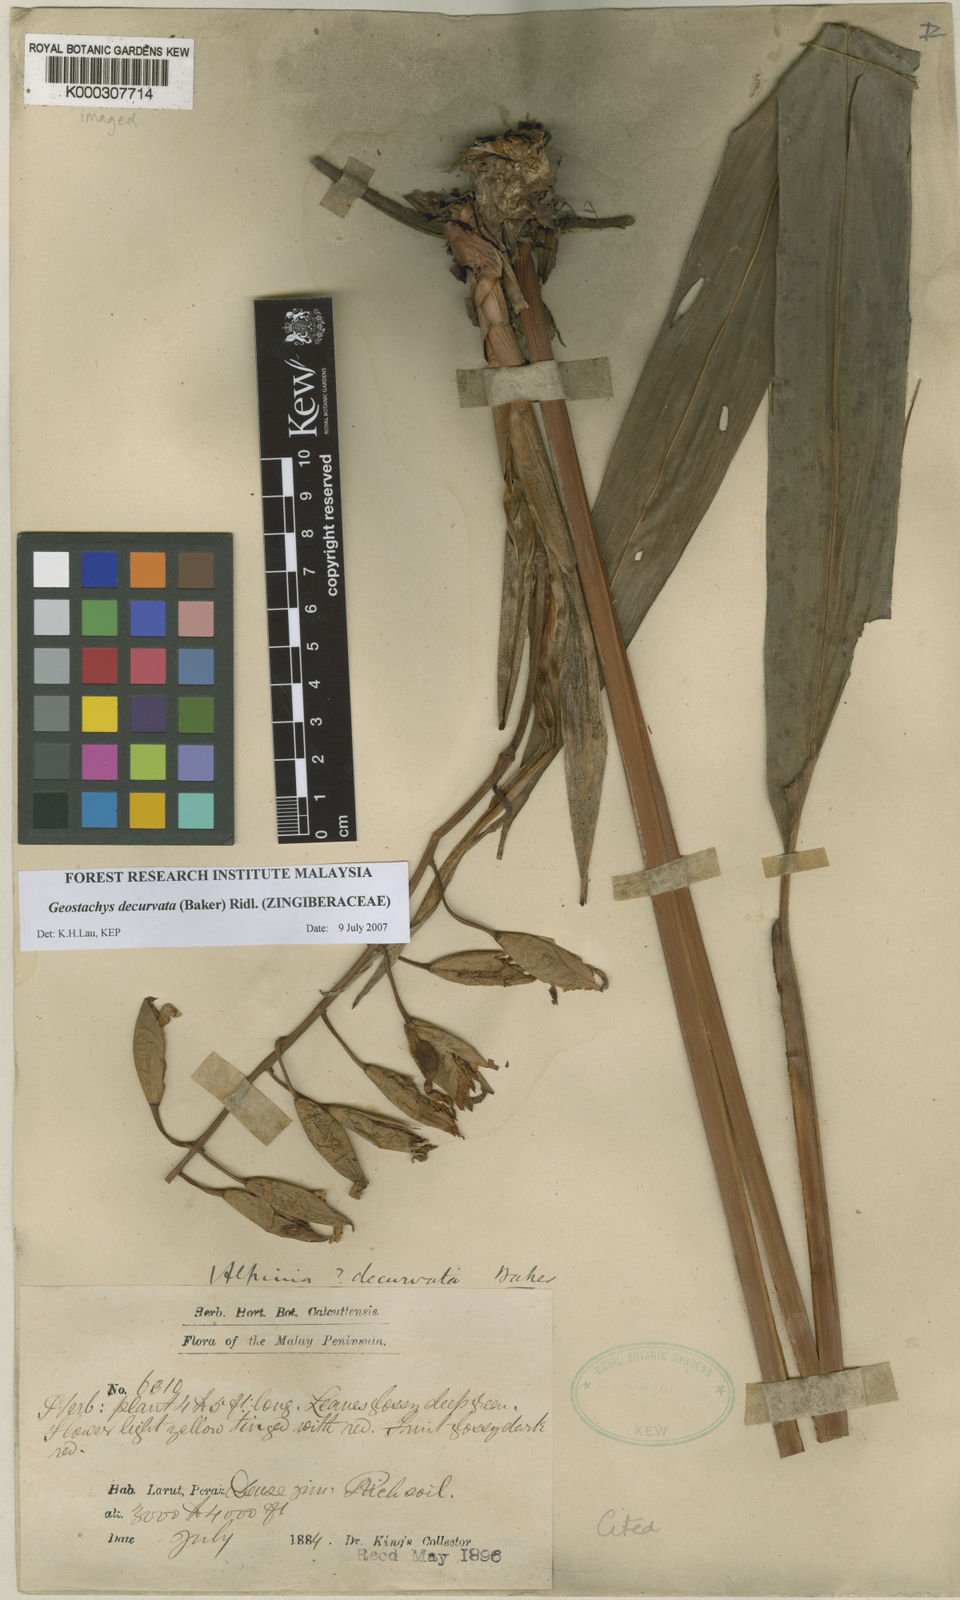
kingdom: Plantae
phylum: Tracheophyta
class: Liliopsida
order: Zingiberales
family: Zingiberaceae
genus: Geostachys
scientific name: Geostachys decurvata
